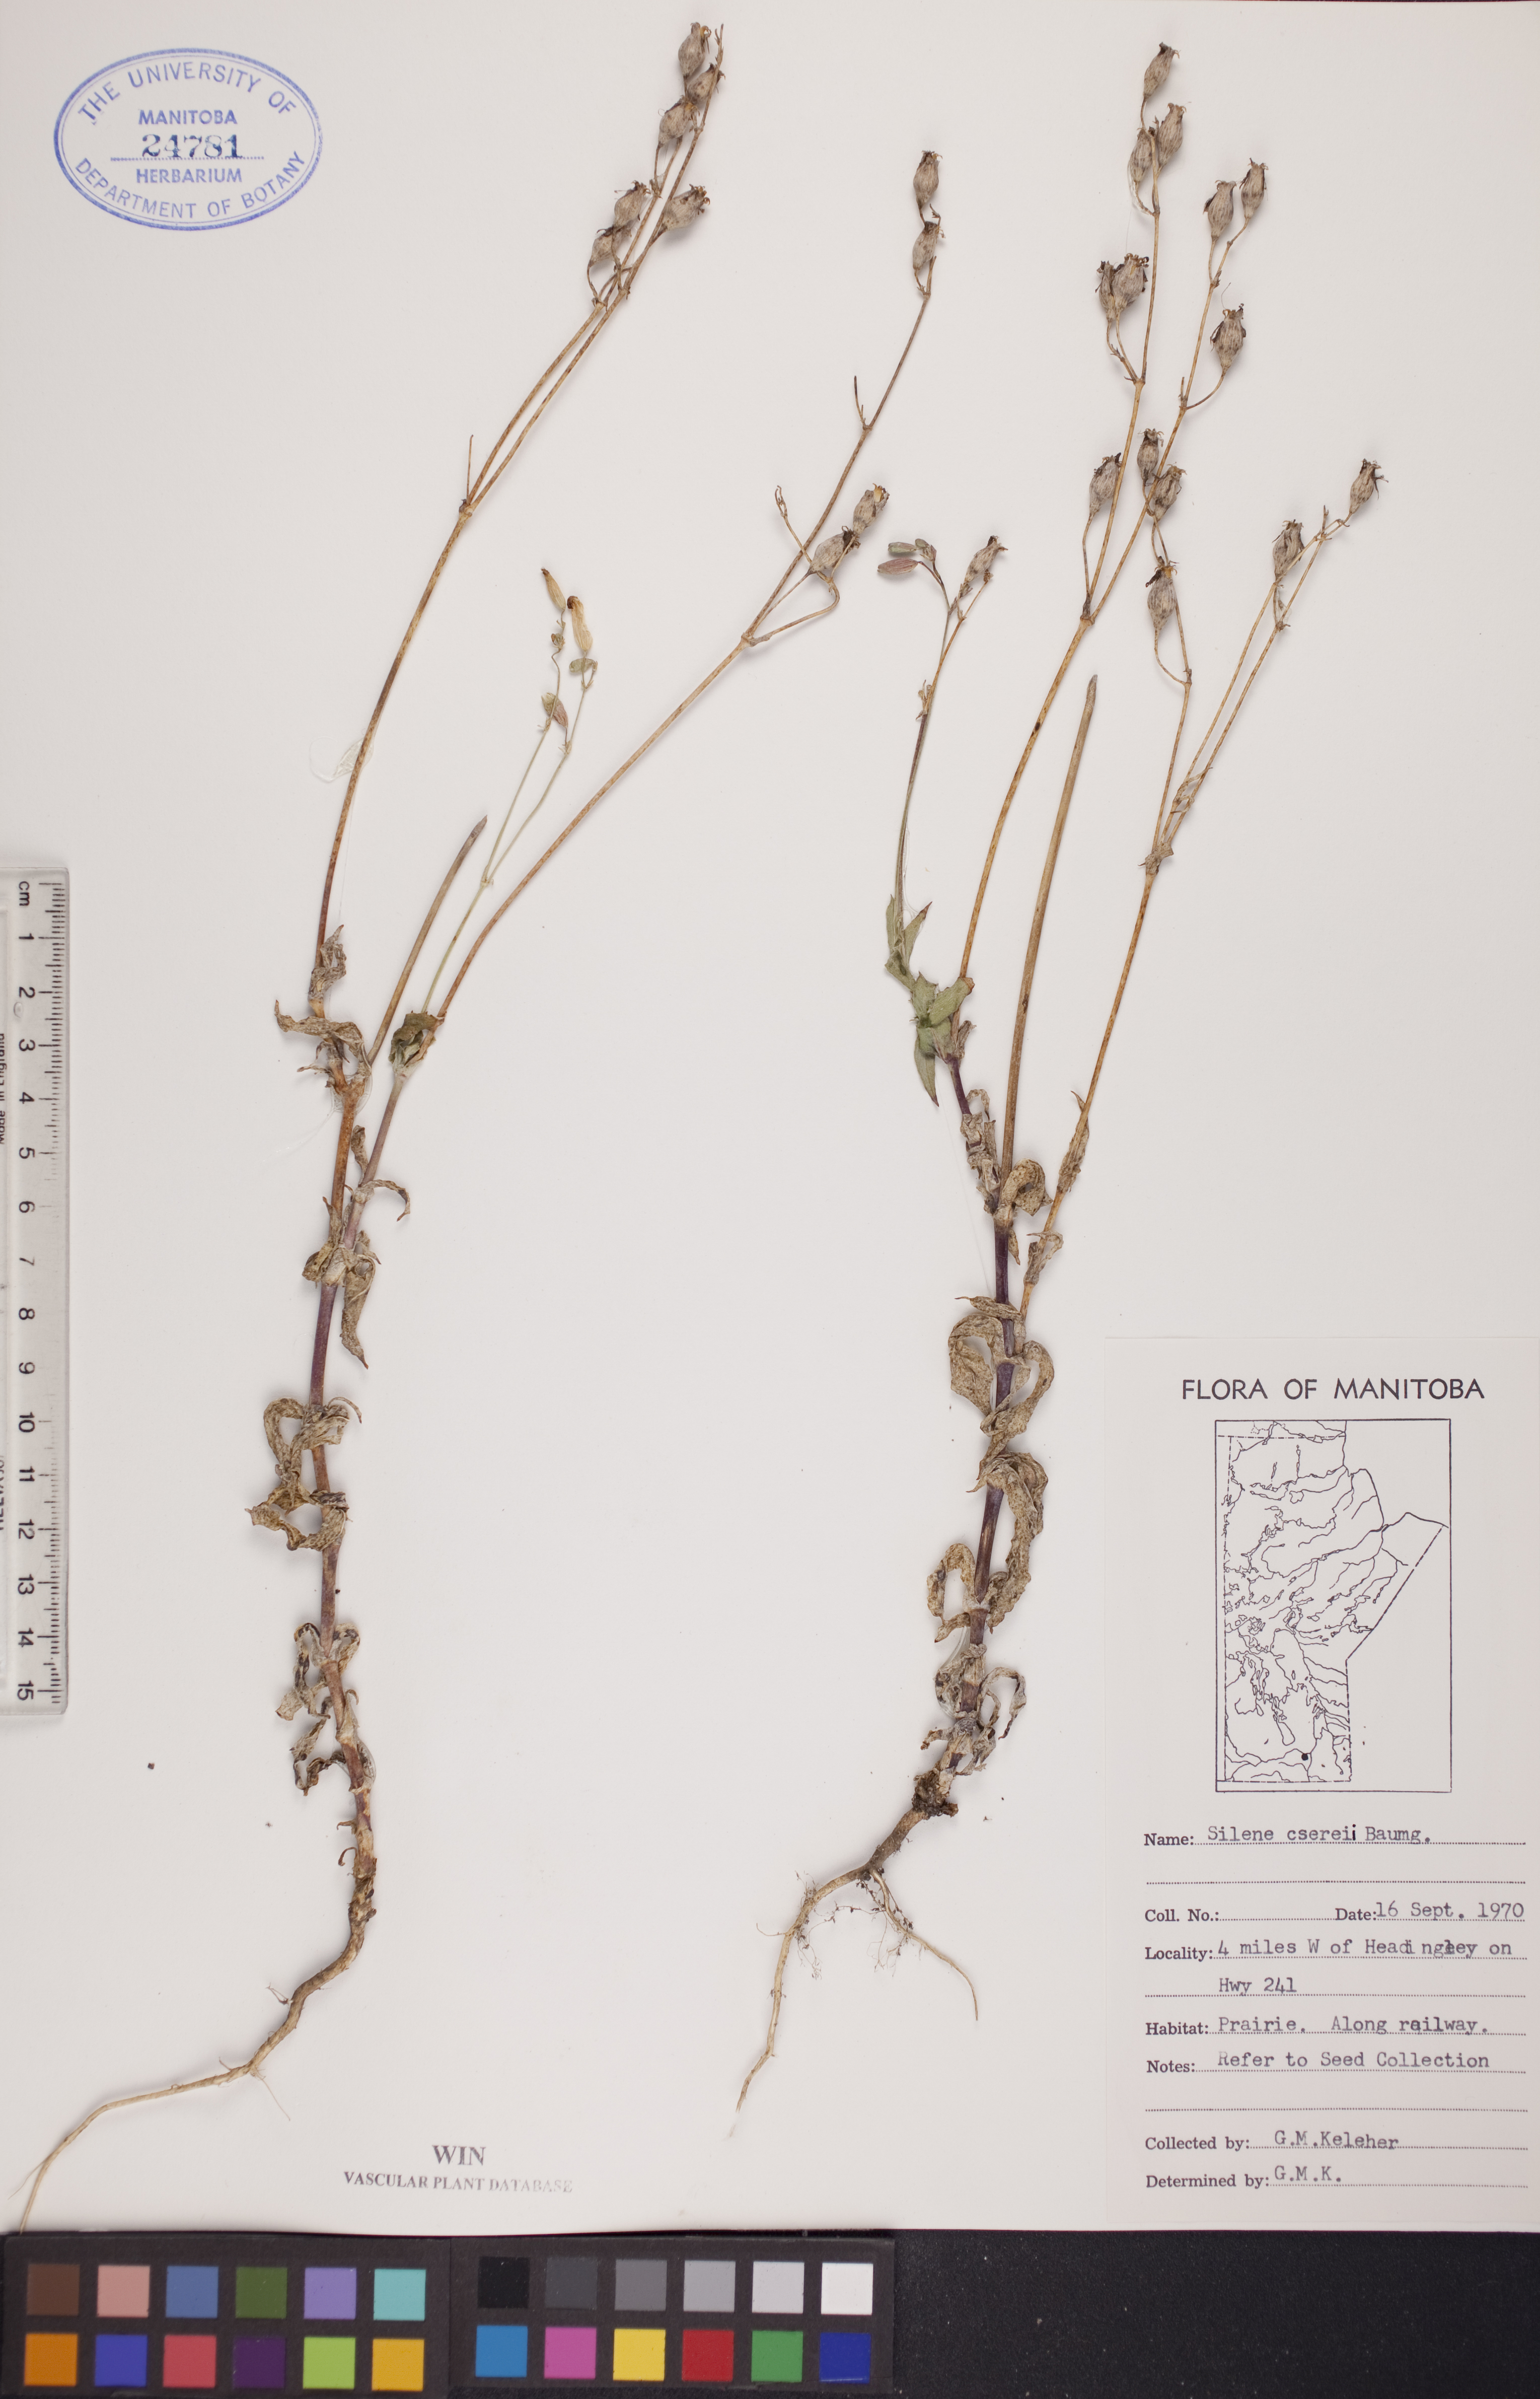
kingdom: Plantae
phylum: Tracheophyta
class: Magnoliopsida
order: Caryophyllales
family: Caryophyllaceae
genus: Silene
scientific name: Silene csereii
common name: Balkan catchfly
